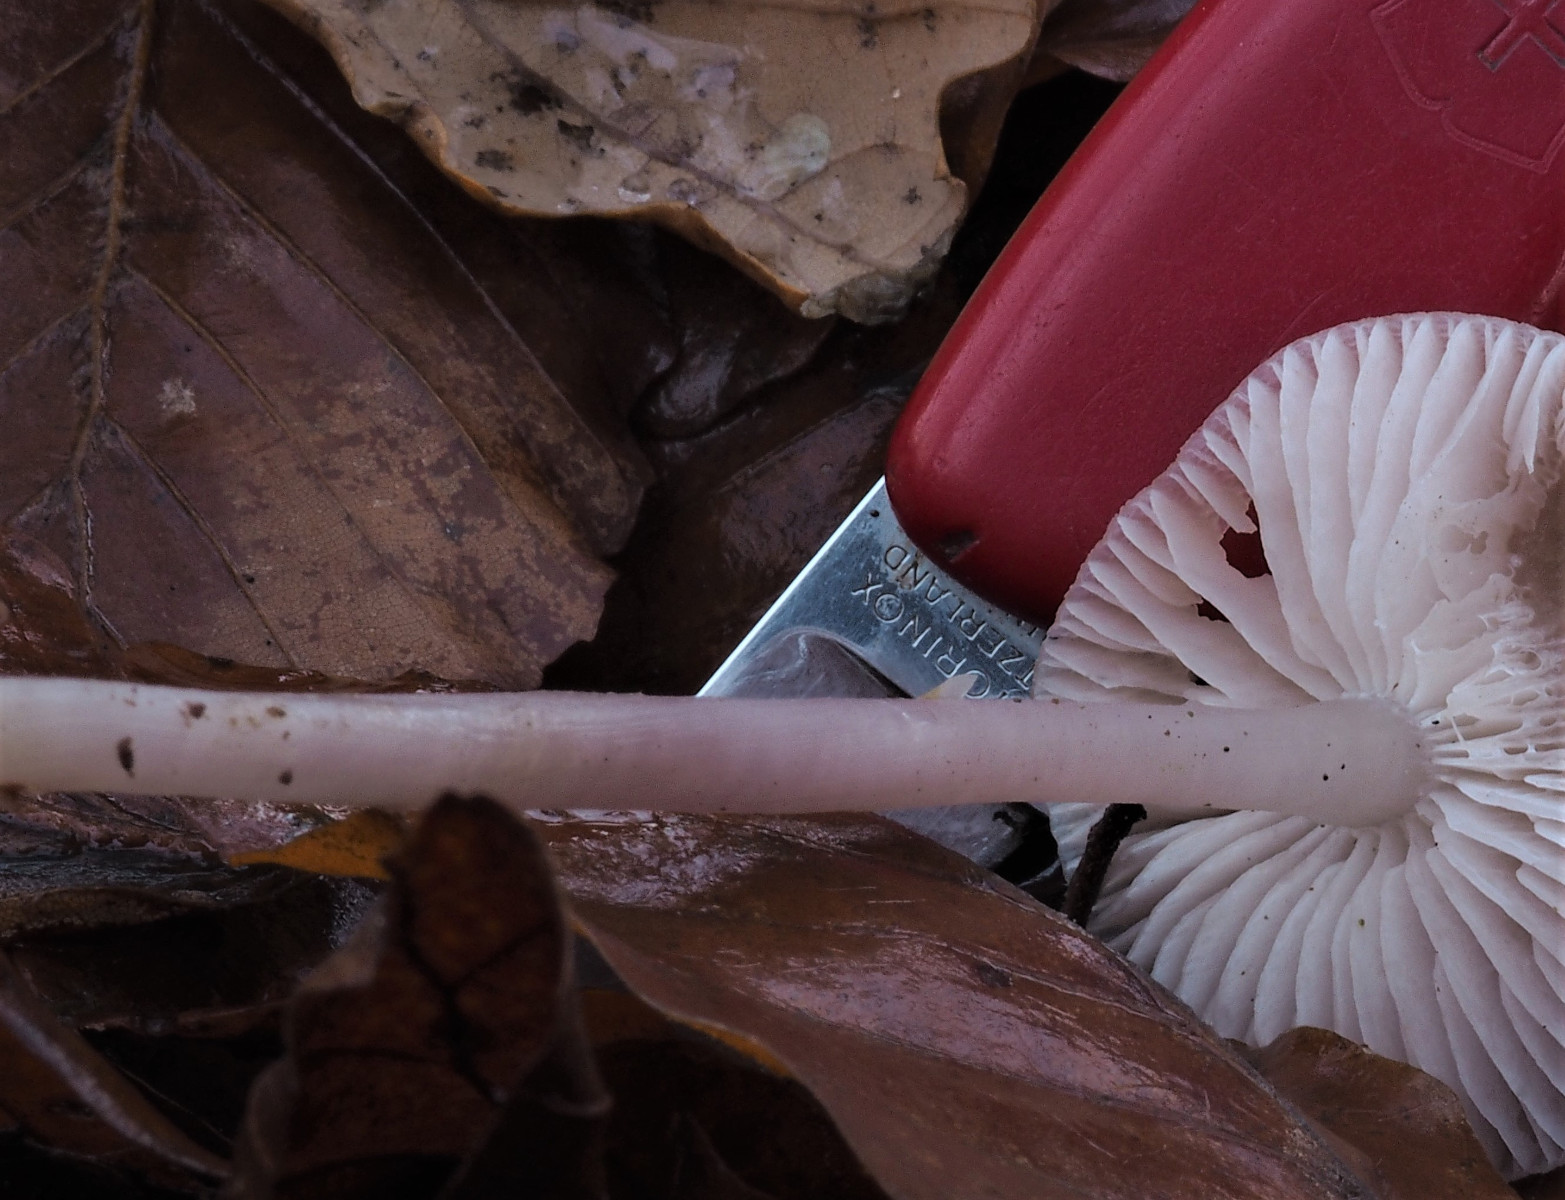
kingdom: Fungi
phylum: Basidiomycota
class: Agaricomycetes
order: Agaricales
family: Mycenaceae
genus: Mycena
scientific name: Mycena rosea
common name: rosa huesvamp
